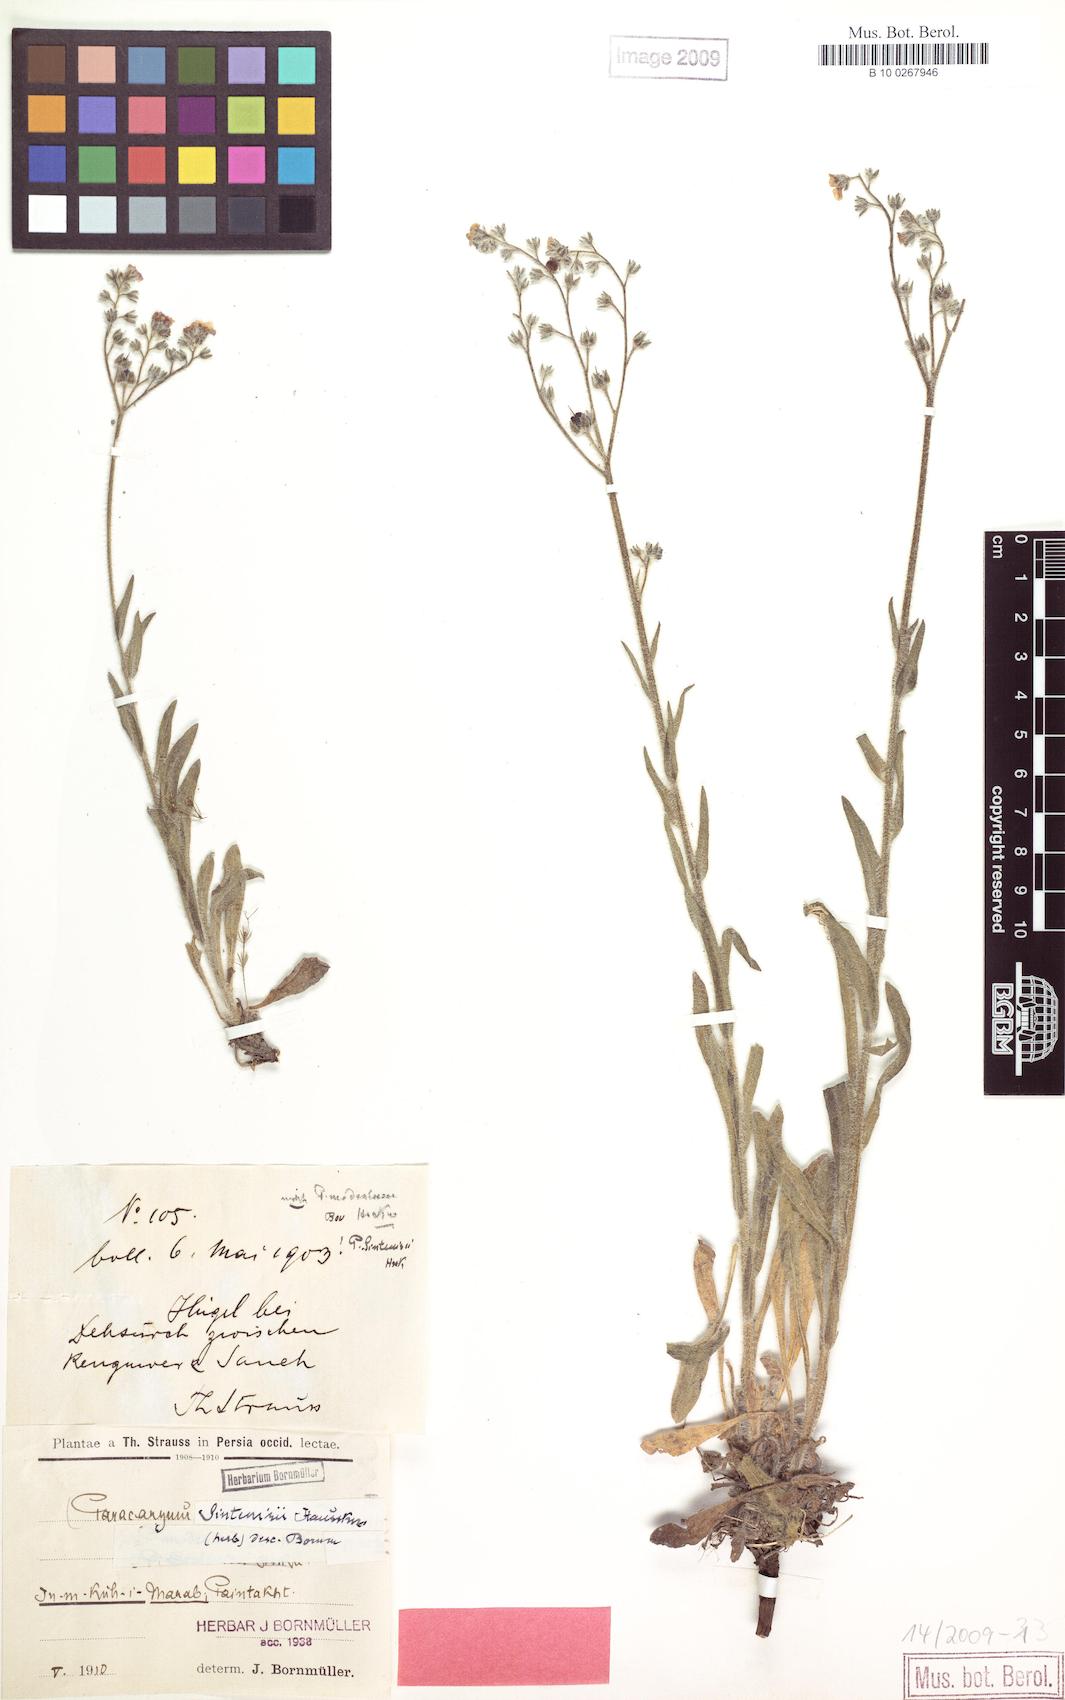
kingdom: Plantae
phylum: Tracheophyta
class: Magnoliopsida
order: Boraginales
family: Boraginaceae
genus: Paracaryum
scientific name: Paracaryum sintenisii
